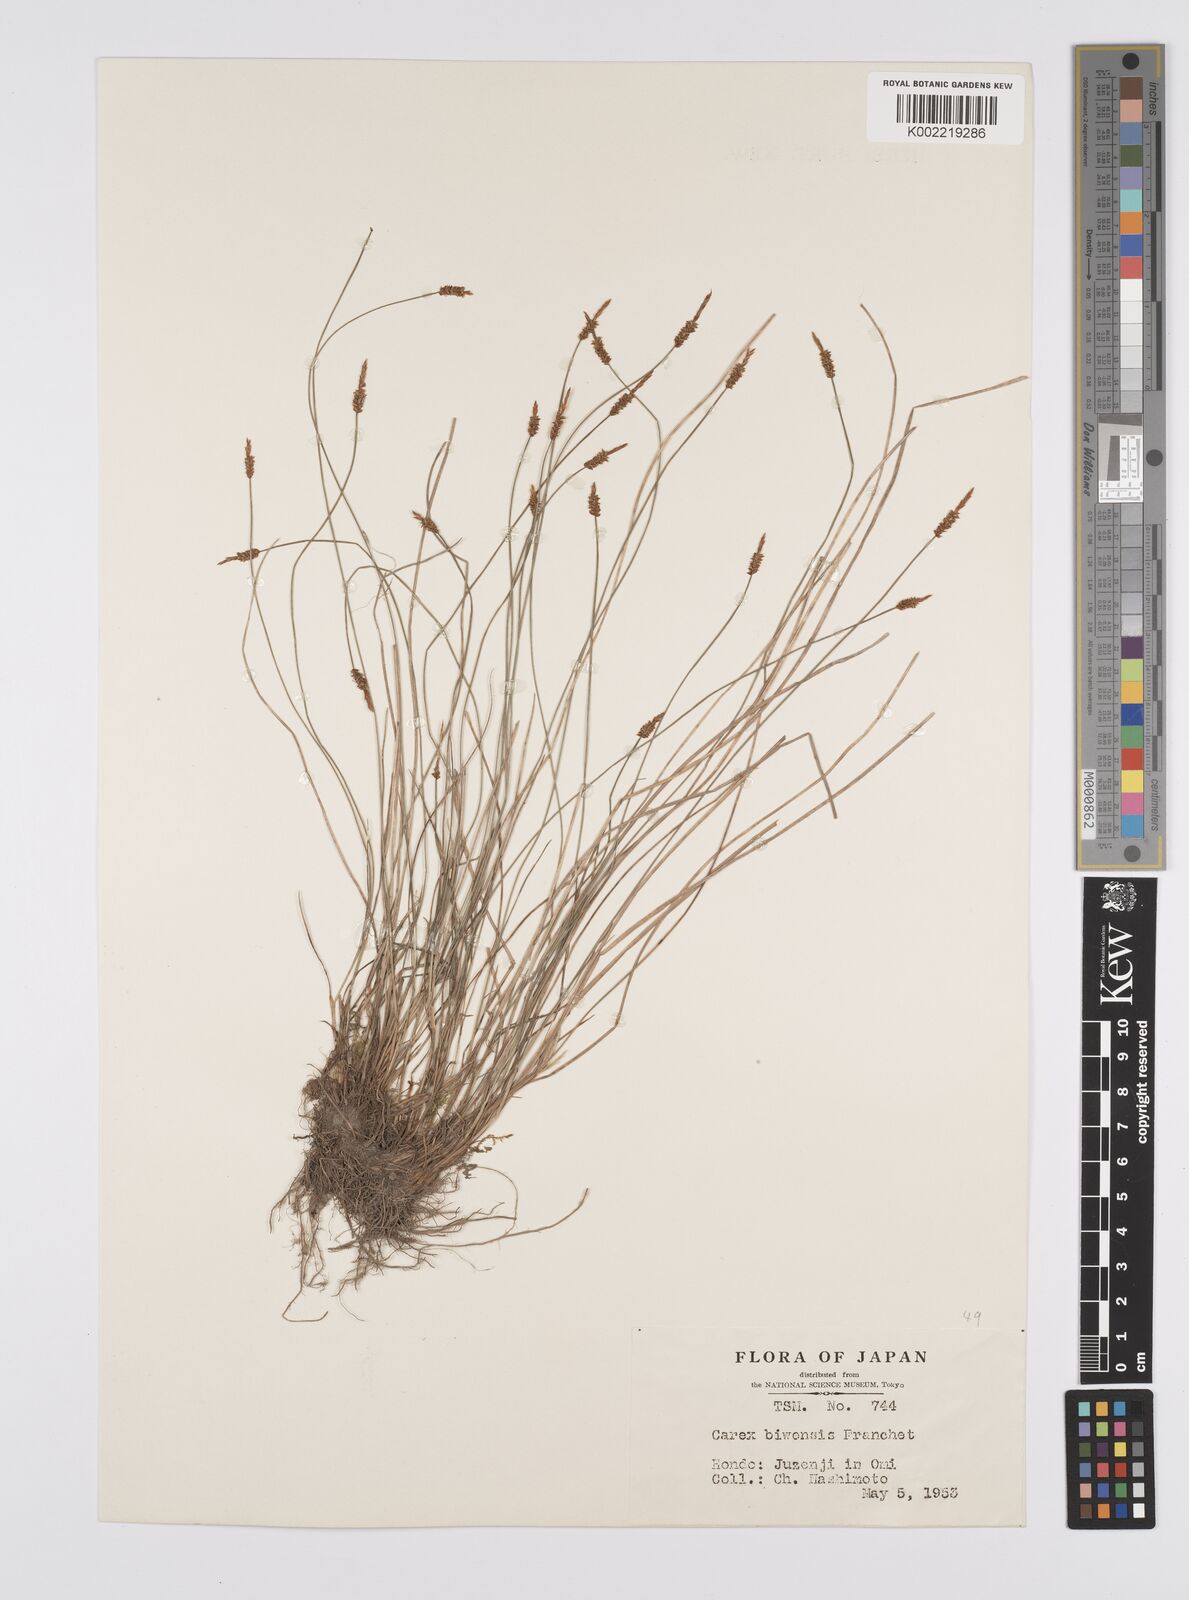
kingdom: Plantae
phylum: Tracheophyta
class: Liliopsida
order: Poales
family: Cyperaceae
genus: Carex
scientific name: Carex rara
